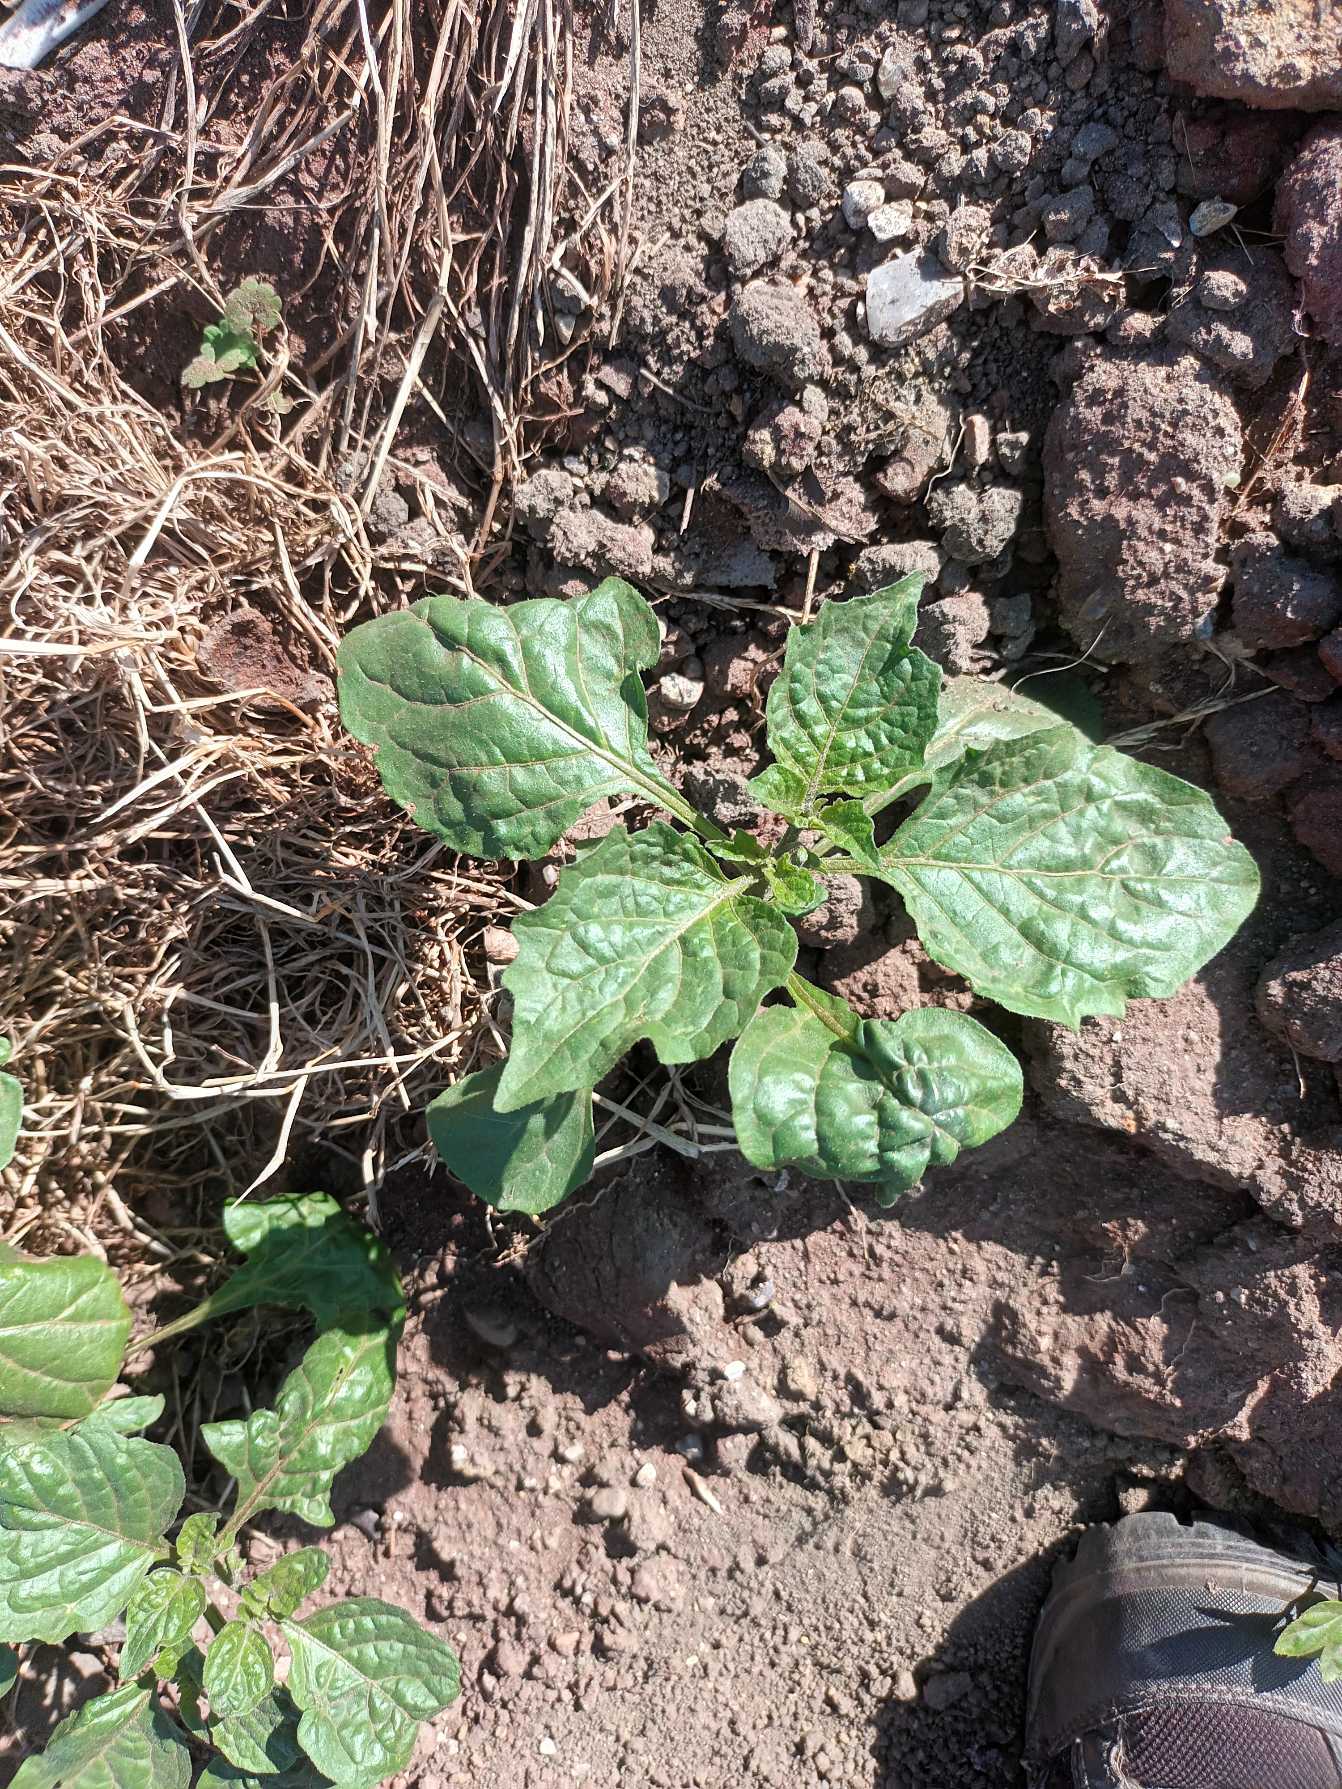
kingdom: Plantae
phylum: Tracheophyta
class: Magnoliopsida
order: Solanales
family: Solanaceae
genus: Solanum
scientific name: Solanum
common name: Natskyggeslægten
